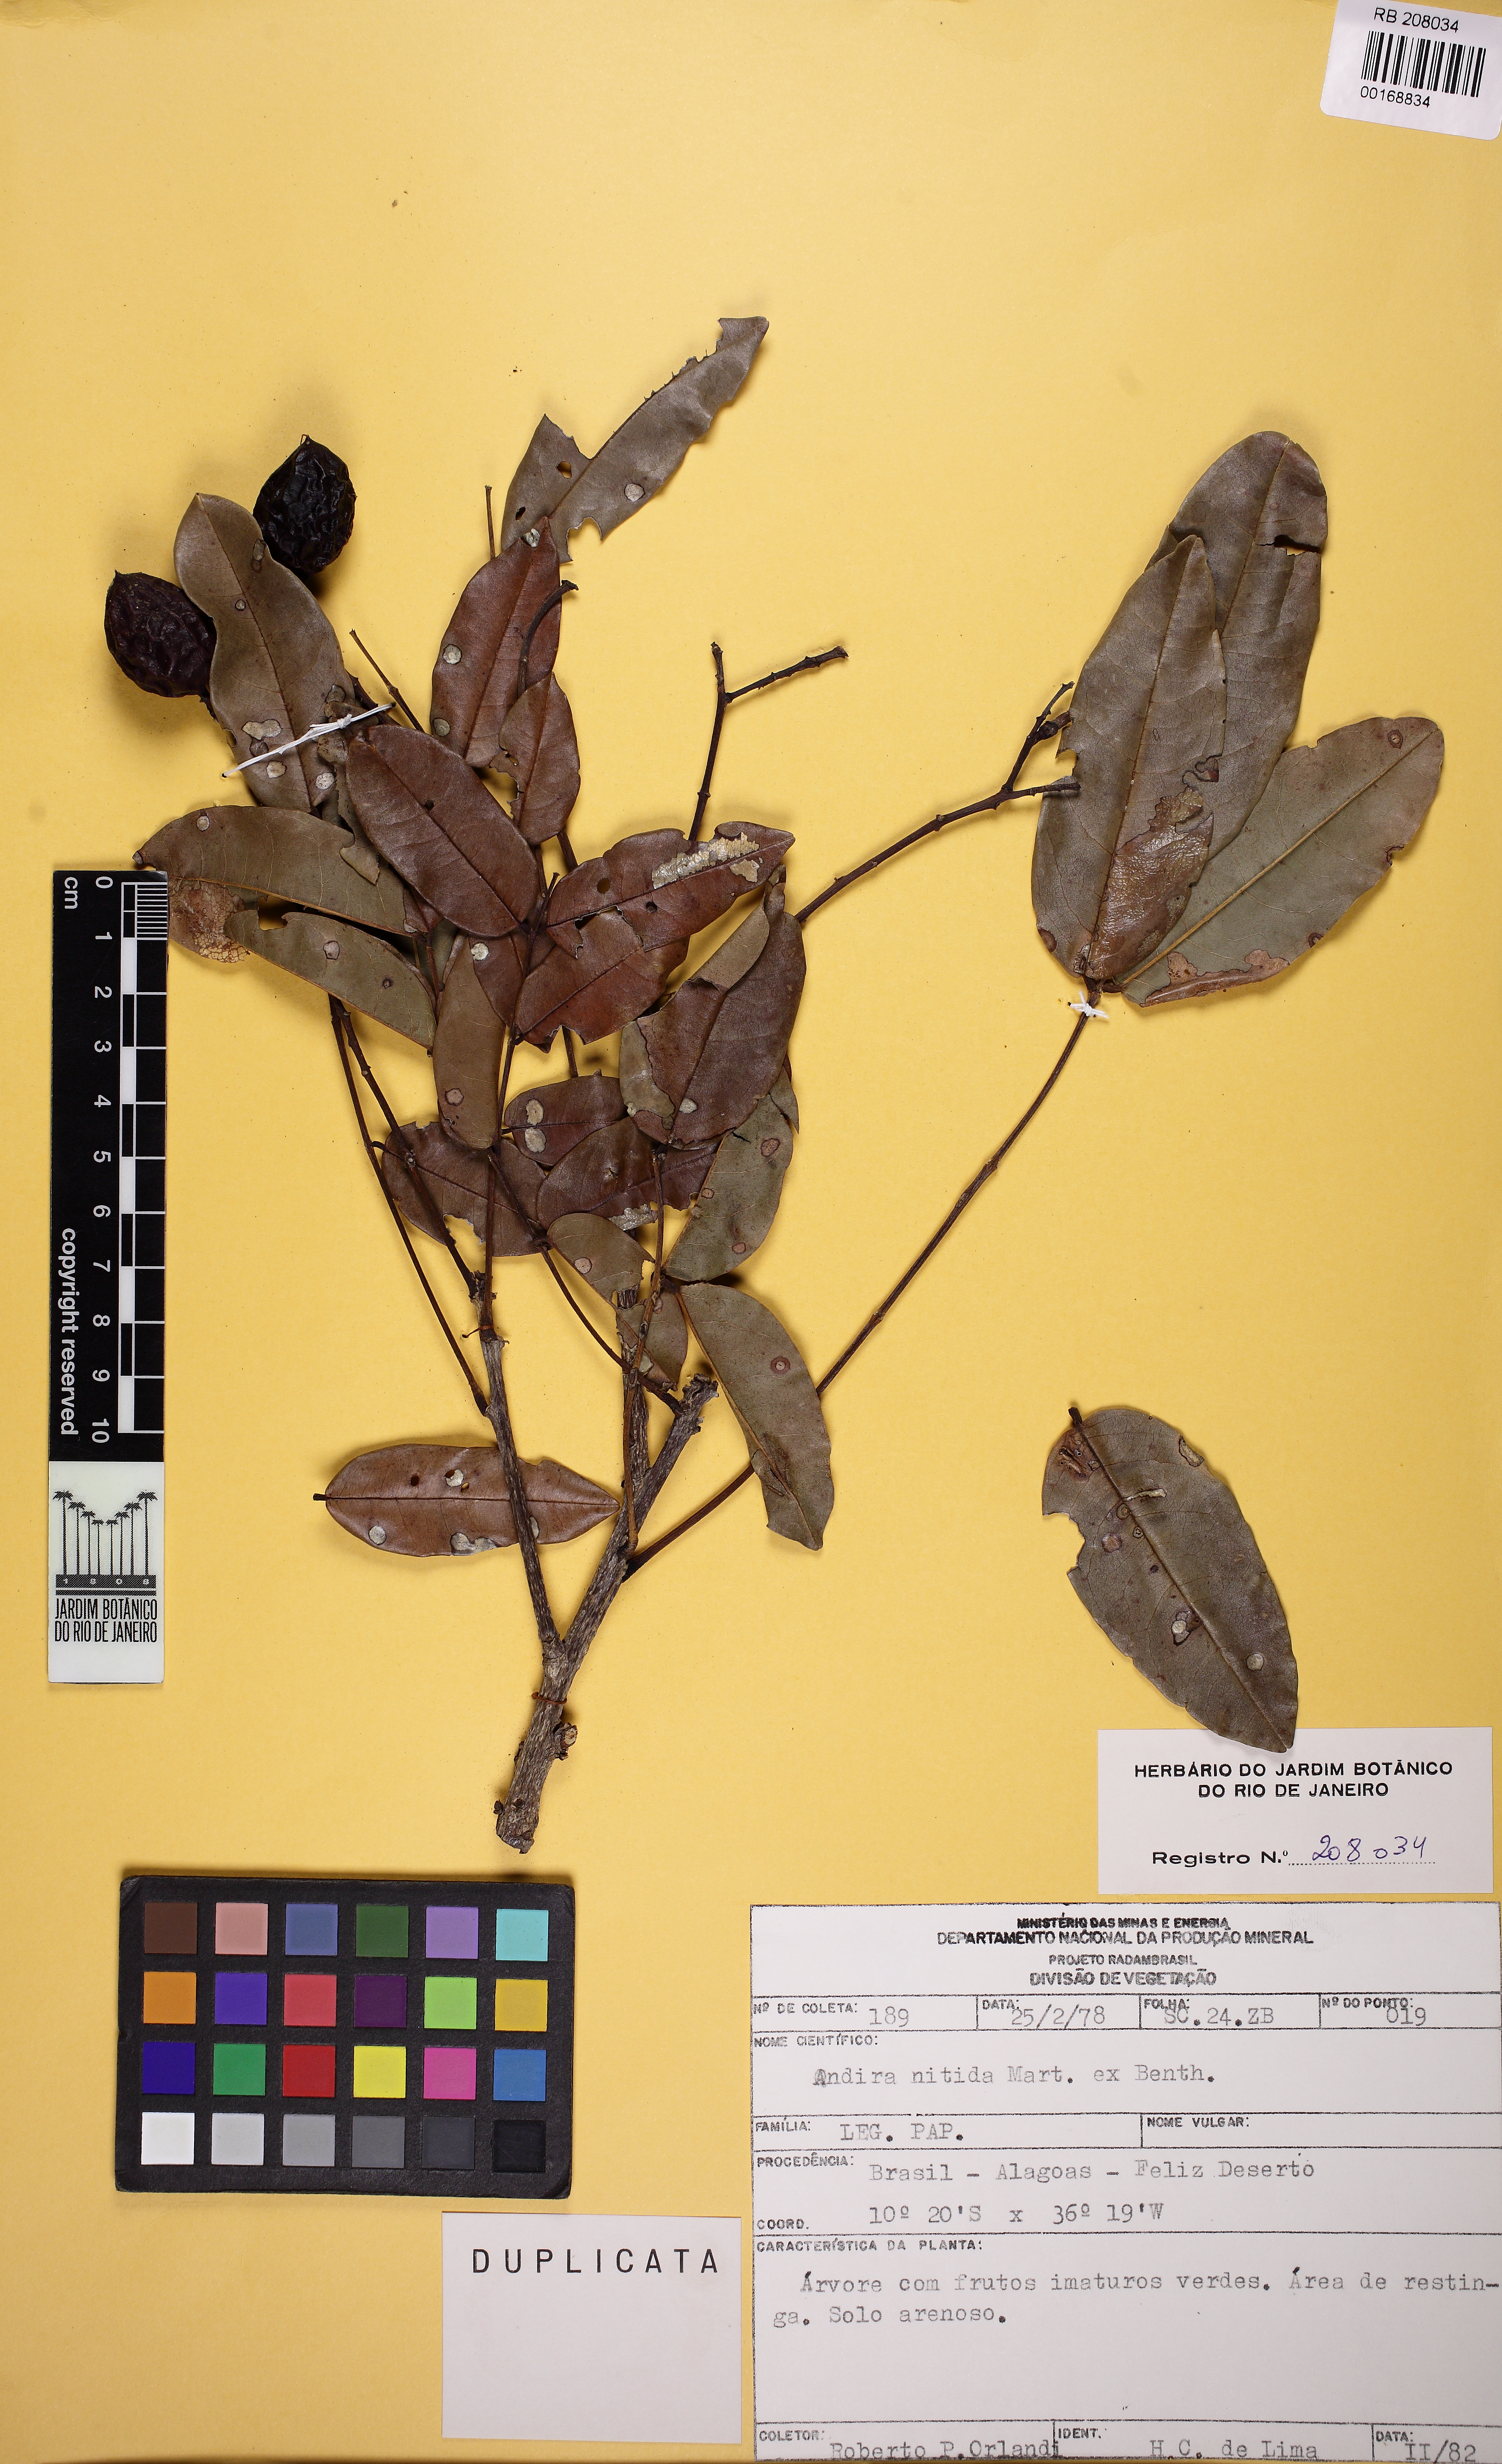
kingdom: Plantae
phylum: Tracheophyta
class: Magnoliopsida
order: Fabales
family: Fabaceae
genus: Andira
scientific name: Andira nitida
